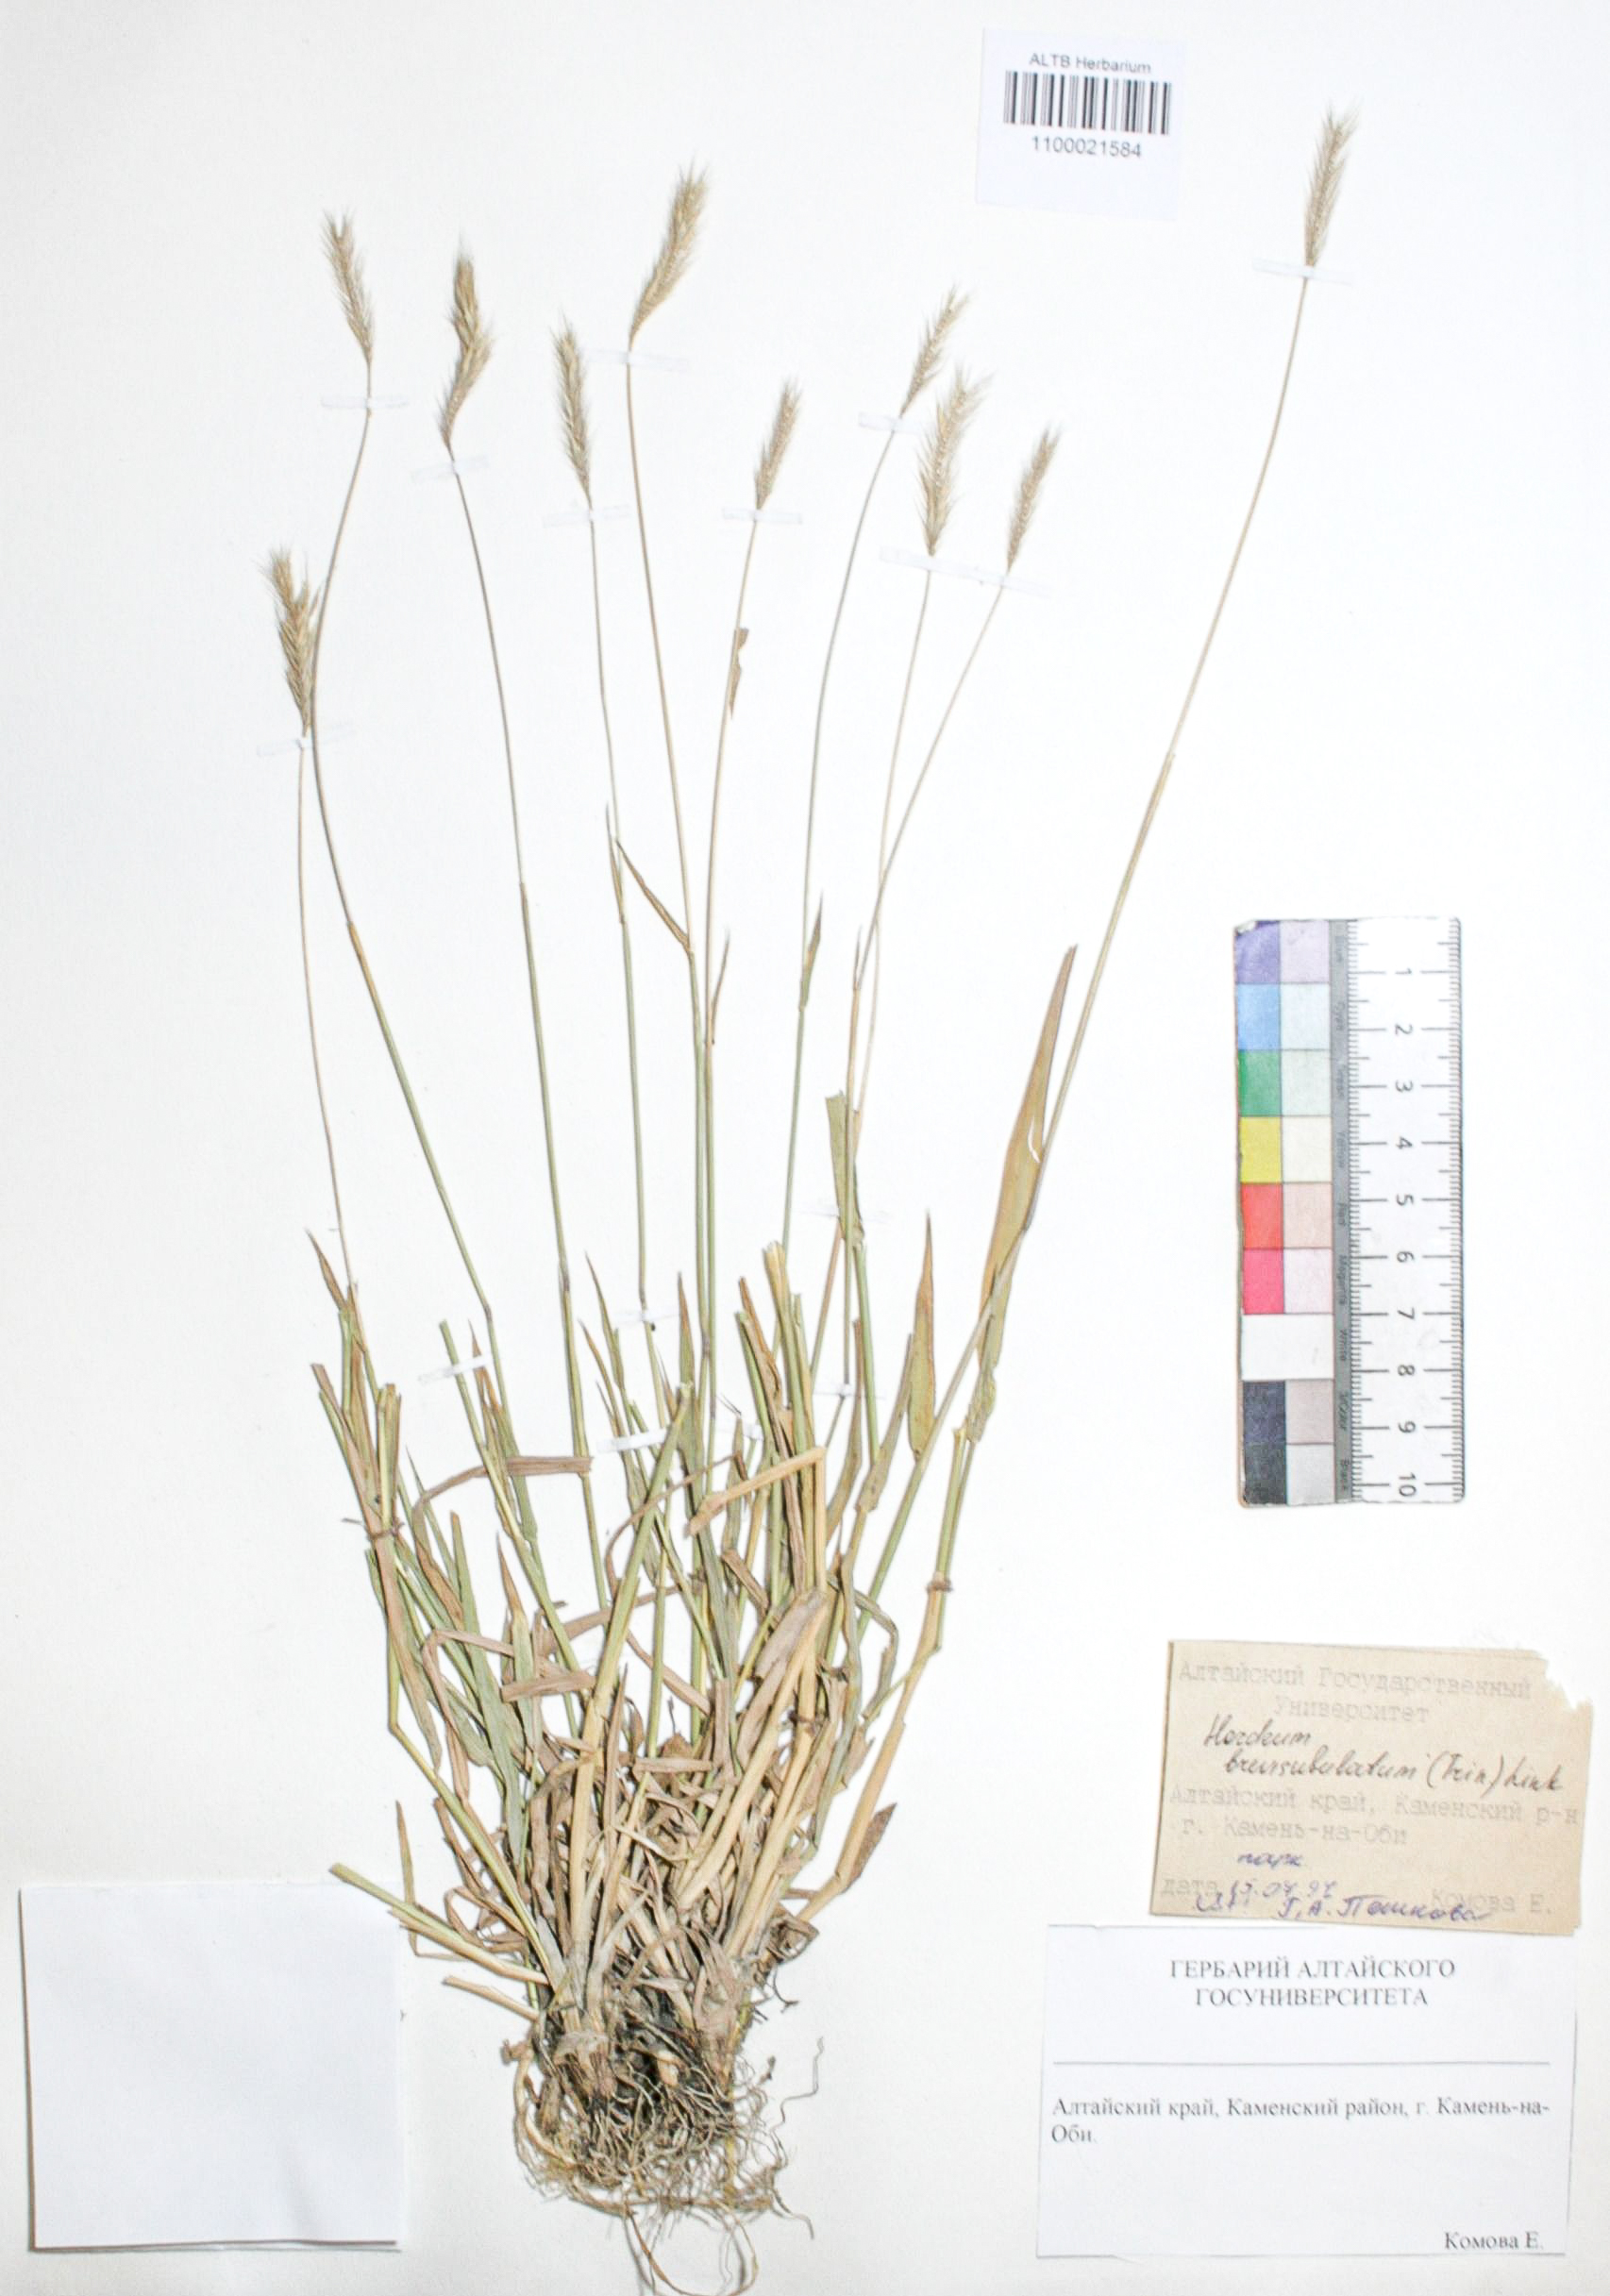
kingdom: Plantae
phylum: Tracheophyta
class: Liliopsida
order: Poales
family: Poaceae
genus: Hordeum
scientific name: Hordeum brevisubulatum
